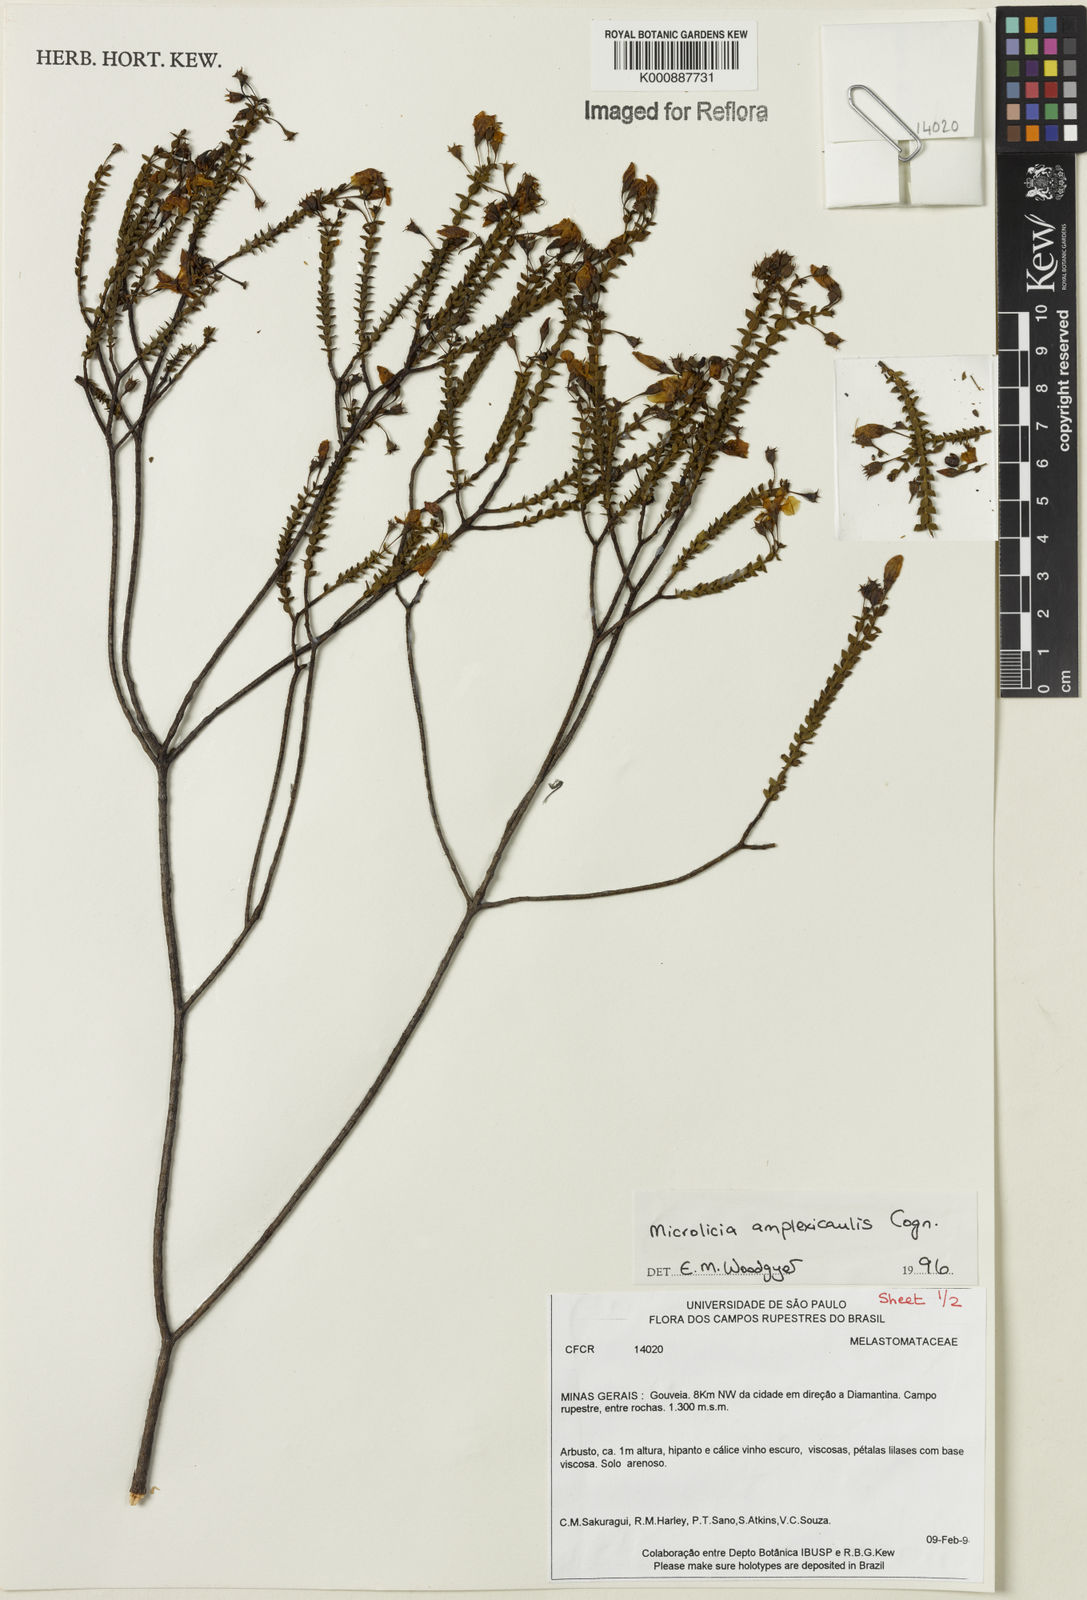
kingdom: Plantae
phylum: Tracheophyta
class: Magnoliopsida
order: Myrtales
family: Melastomataceae
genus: Microlicia
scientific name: Microlicia amplexicaulis
